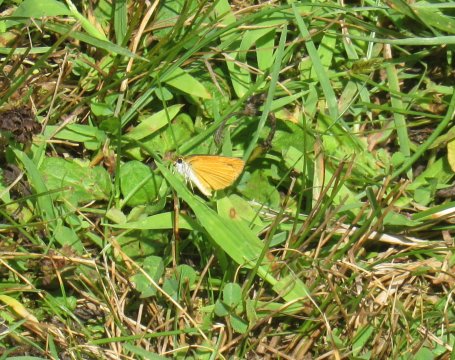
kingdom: Animalia
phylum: Arthropoda
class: Insecta
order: Lepidoptera
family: Hesperiidae
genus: Ancyloxypha
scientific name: Ancyloxypha numitor
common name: Least Skipper
